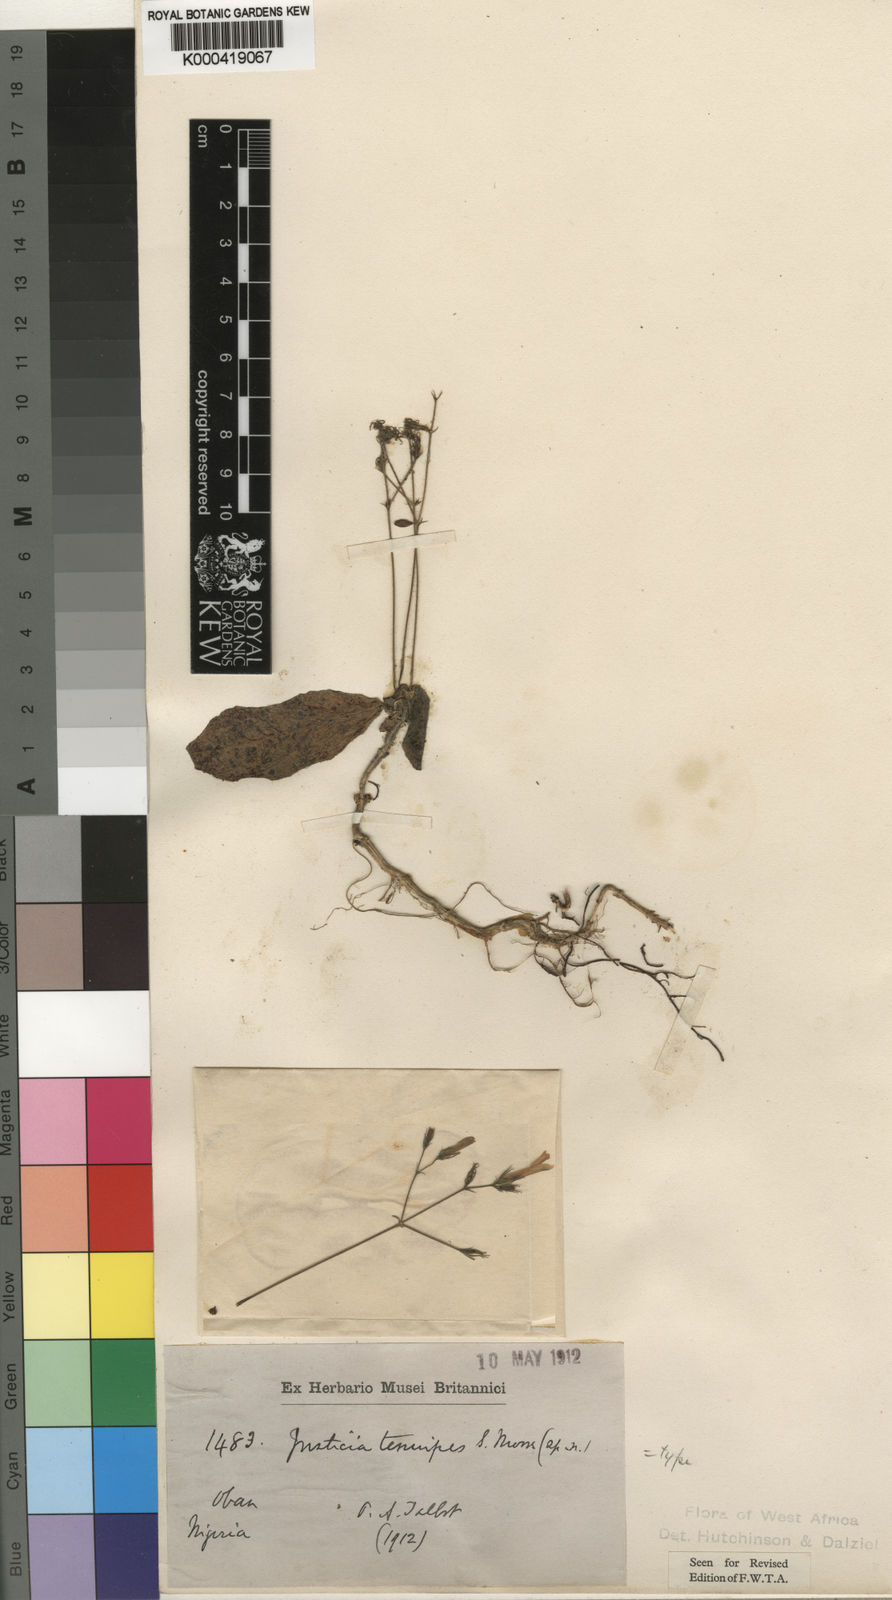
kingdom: Plantae
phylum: Tracheophyta
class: Magnoliopsida
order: Lamiales
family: Acanthaceae
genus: Rhinacanthus
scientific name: Rhinacanthus obtusifolius
